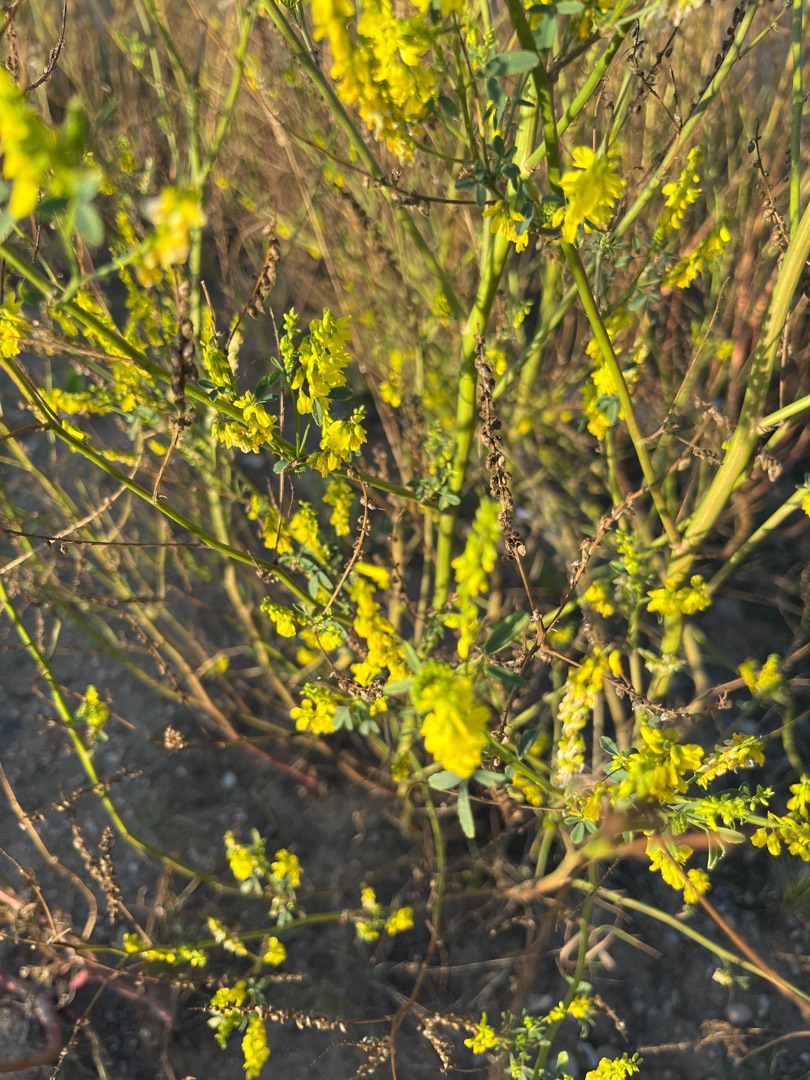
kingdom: Plantae
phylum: Tracheophyta
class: Magnoliopsida
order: Fabales
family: Fabaceae
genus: Melilotus
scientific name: Melilotus
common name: Stenkløverslægten
